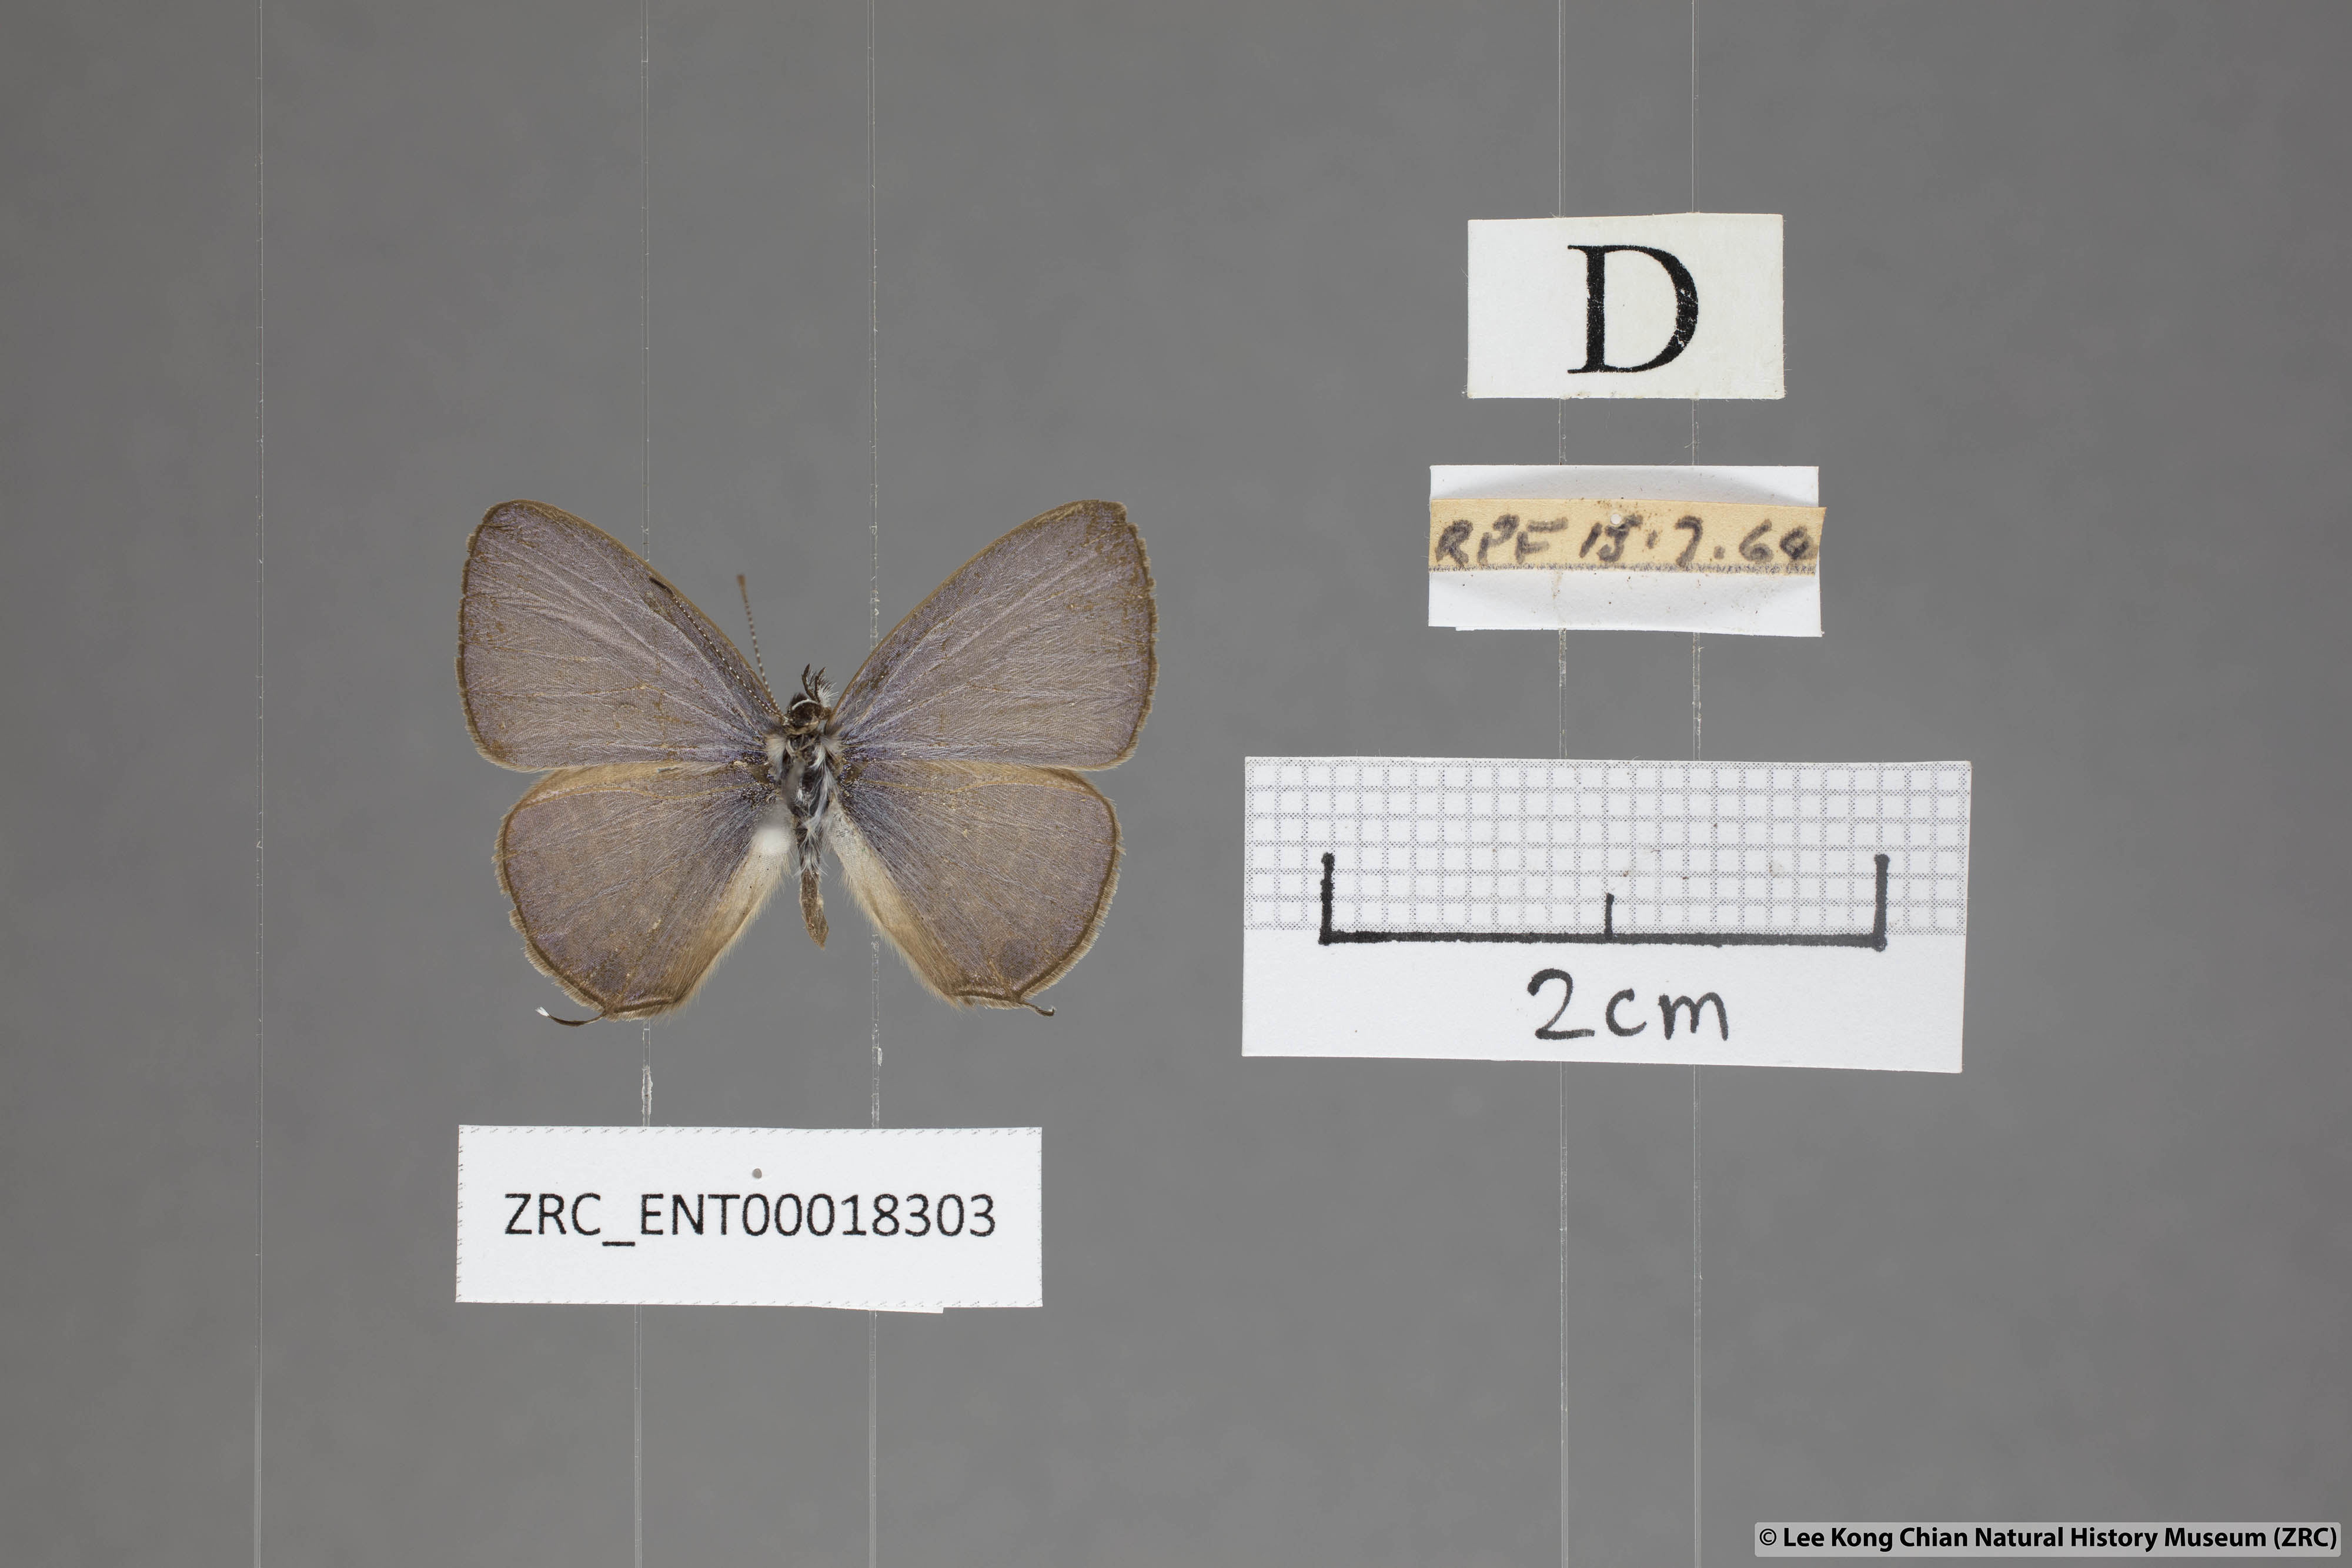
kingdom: Animalia
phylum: Arthropoda
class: Insecta
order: Lepidoptera
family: Lycaenidae
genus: Nacaduba
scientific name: Nacaduba berenice
